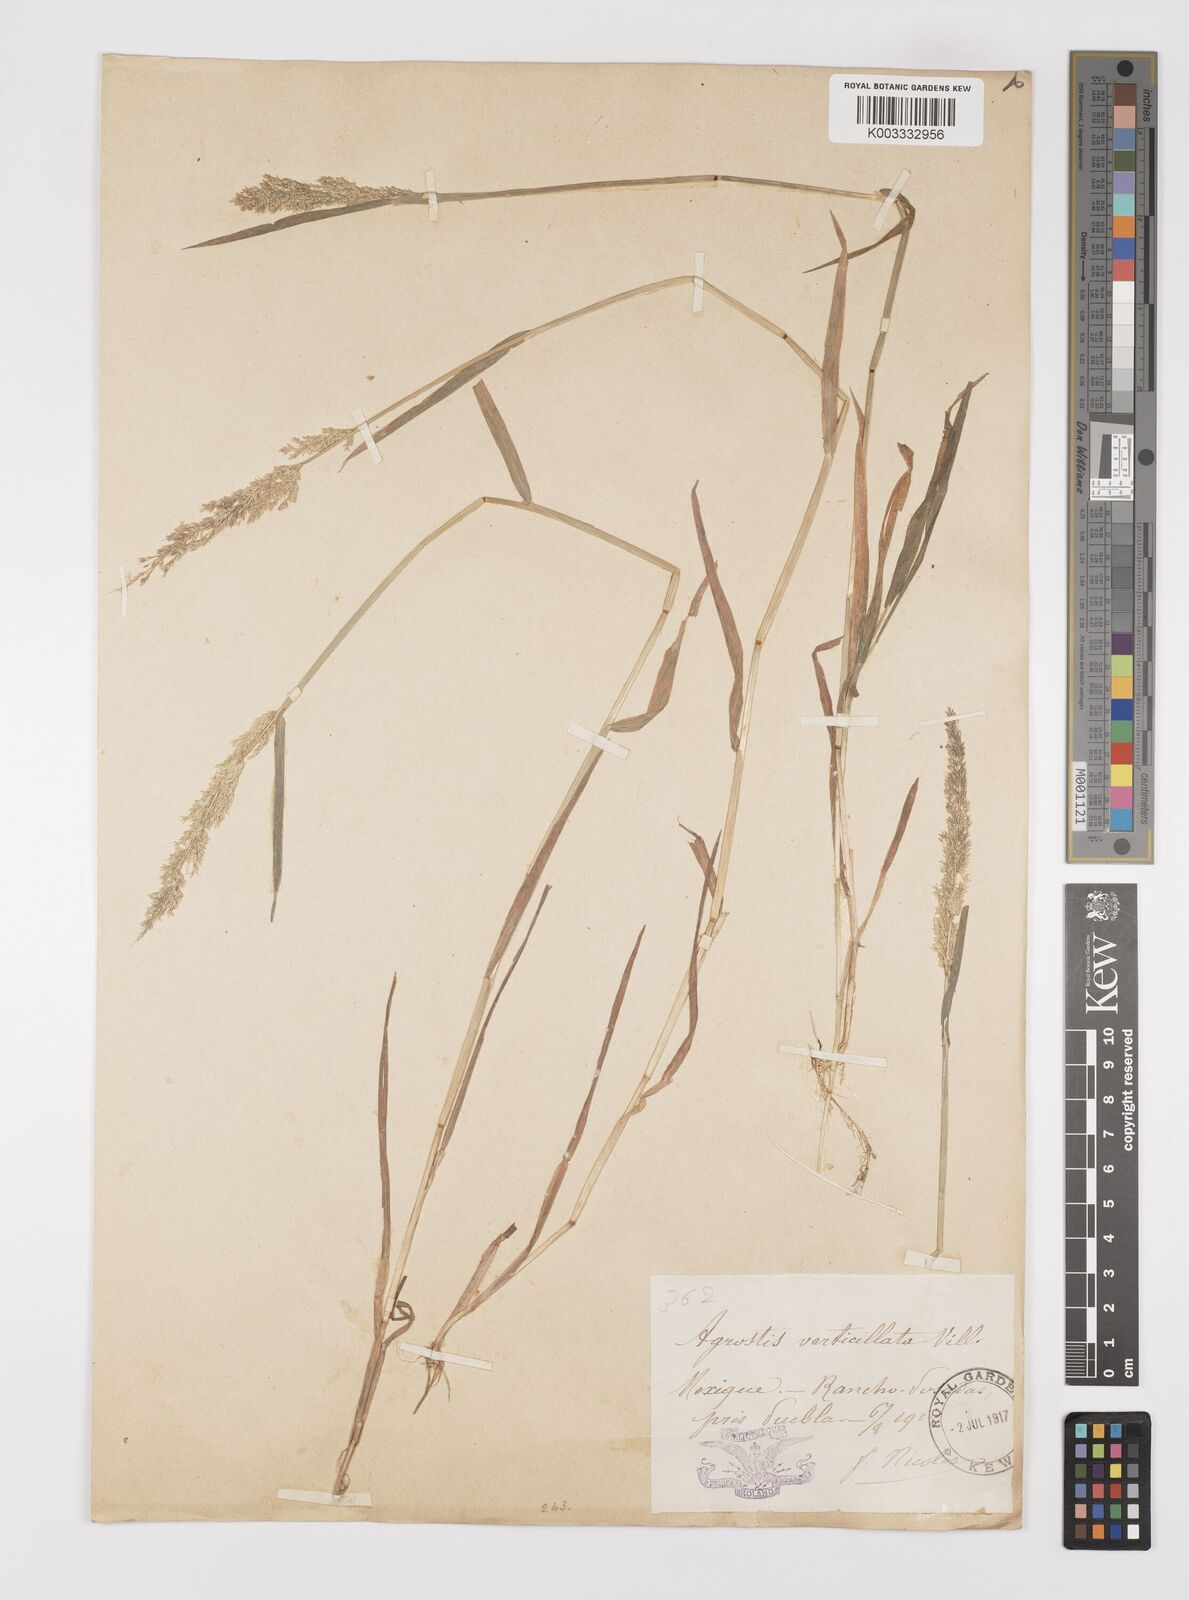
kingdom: Plantae
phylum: Tracheophyta
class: Liliopsida
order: Poales
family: Poaceae
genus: Polypogon
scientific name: Polypogon viridis
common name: Water bent
